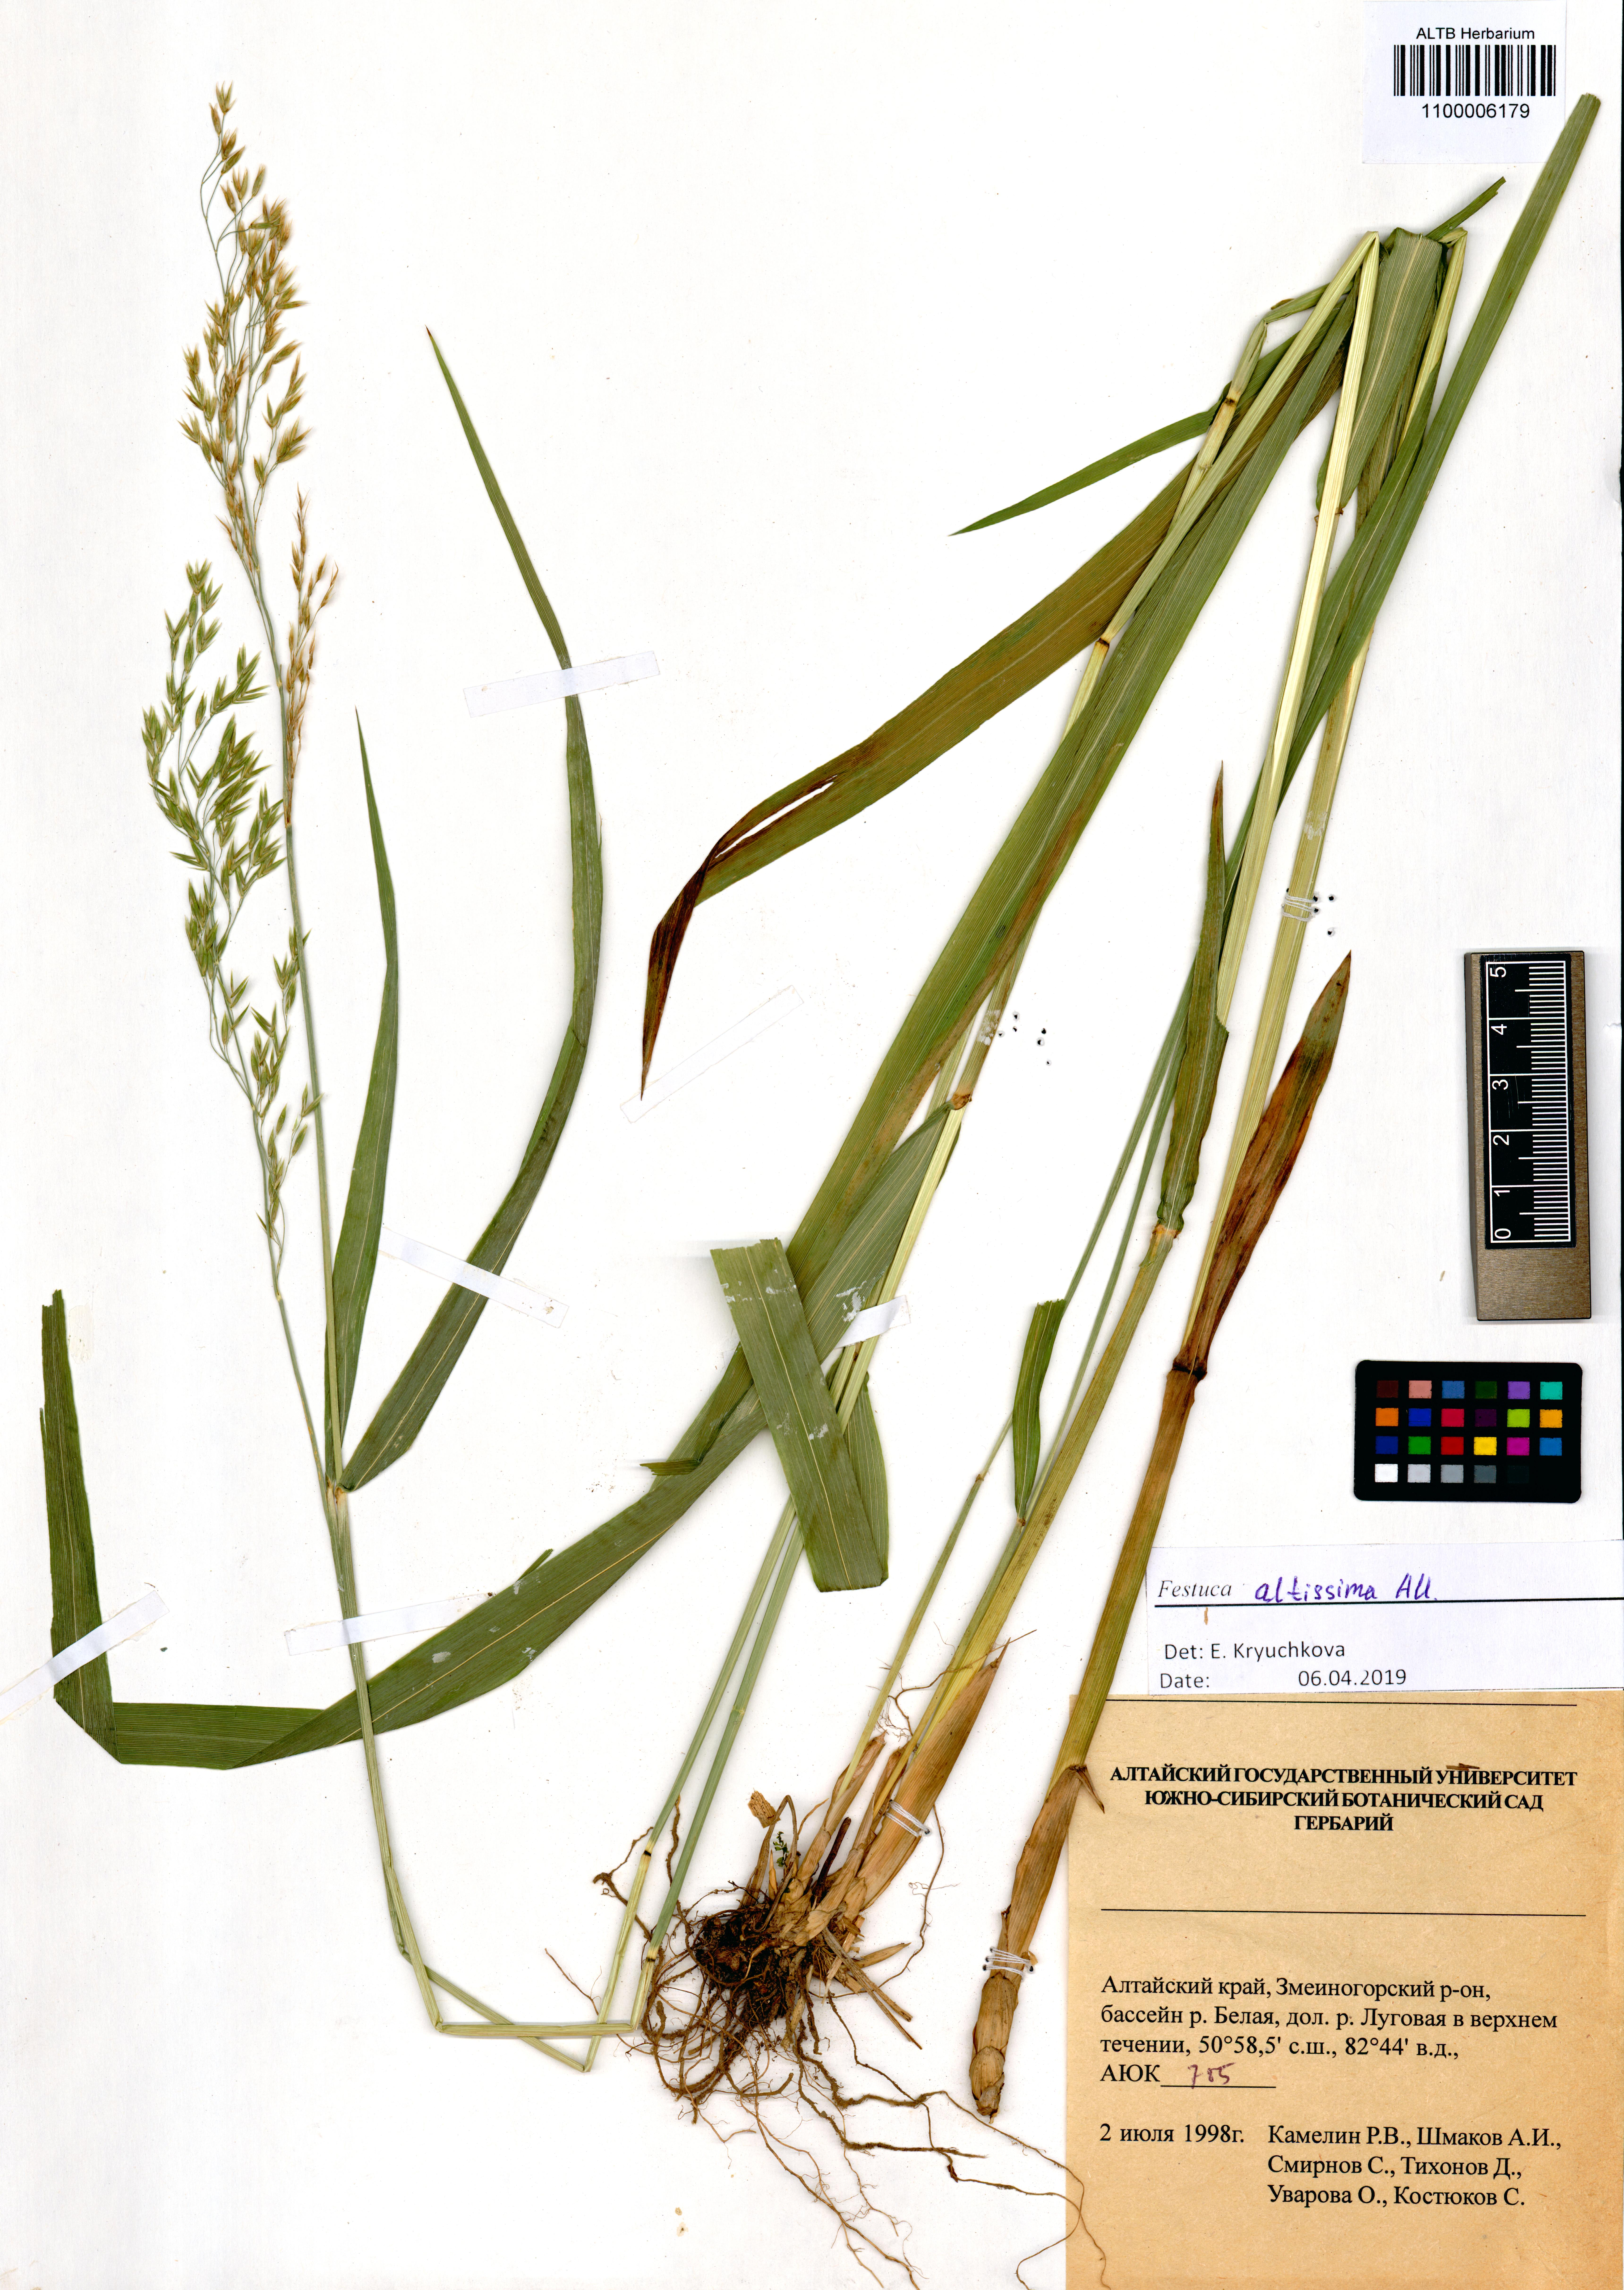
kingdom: Plantae
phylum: Tracheophyta
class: Liliopsida
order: Poales
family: Poaceae
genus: Festuca
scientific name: Festuca altissima
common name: Wood fescue
